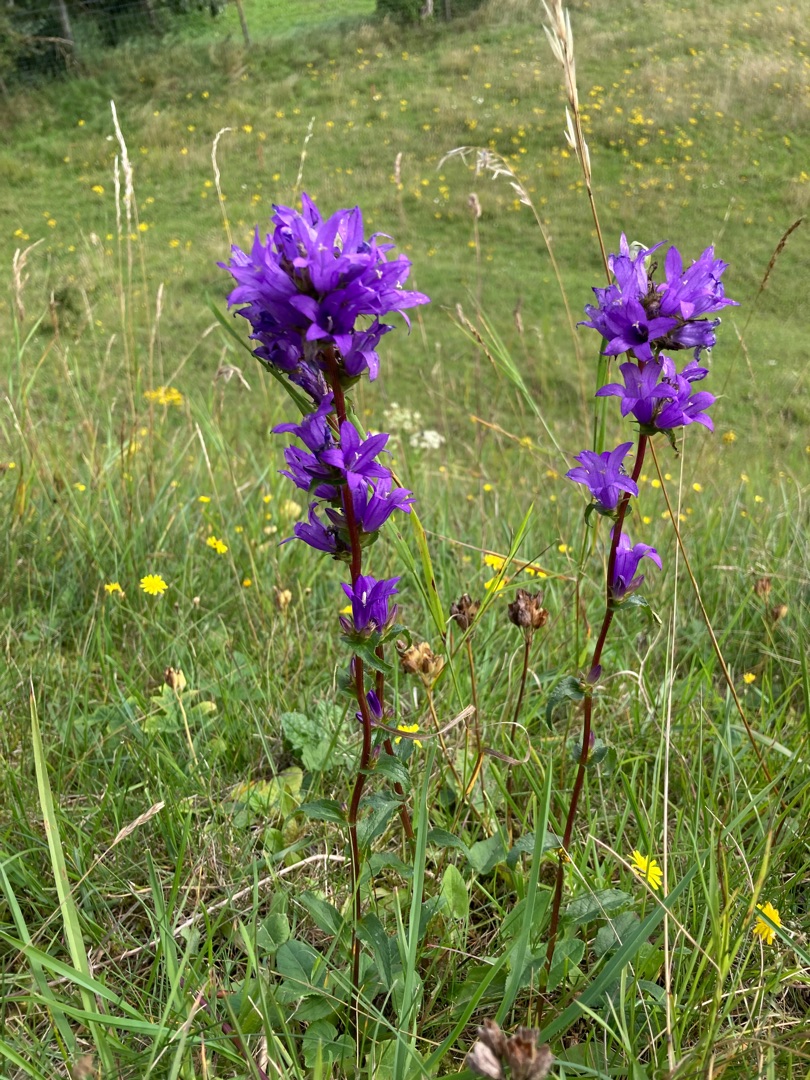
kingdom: Plantae
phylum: Tracheophyta
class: Magnoliopsida
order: Asterales
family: Campanulaceae
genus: Campanula
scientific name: Campanula glomerata
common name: Nøgleblomstret klokke
